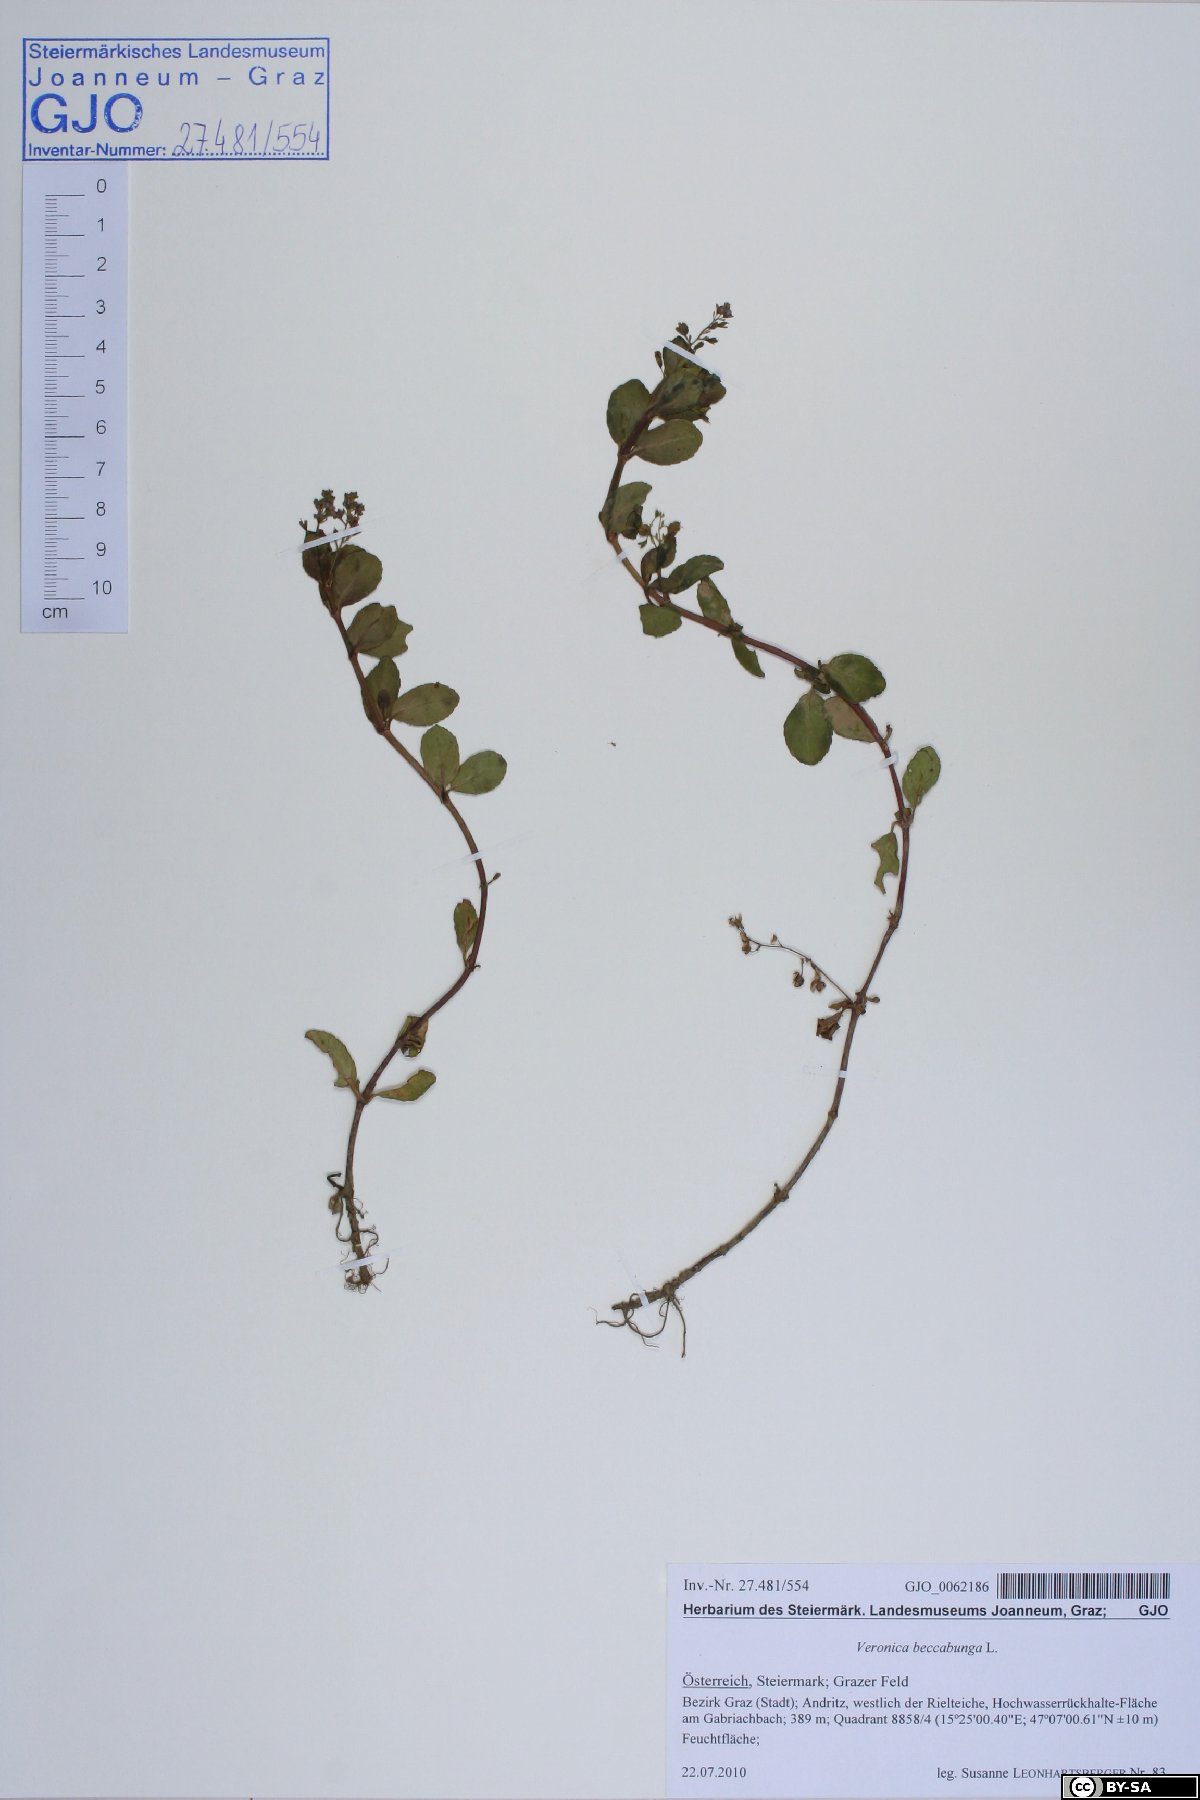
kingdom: Plantae
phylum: Tracheophyta
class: Magnoliopsida
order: Lamiales
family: Plantaginaceae
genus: Veronica
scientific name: Veronica beccabunga
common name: Brooklime
